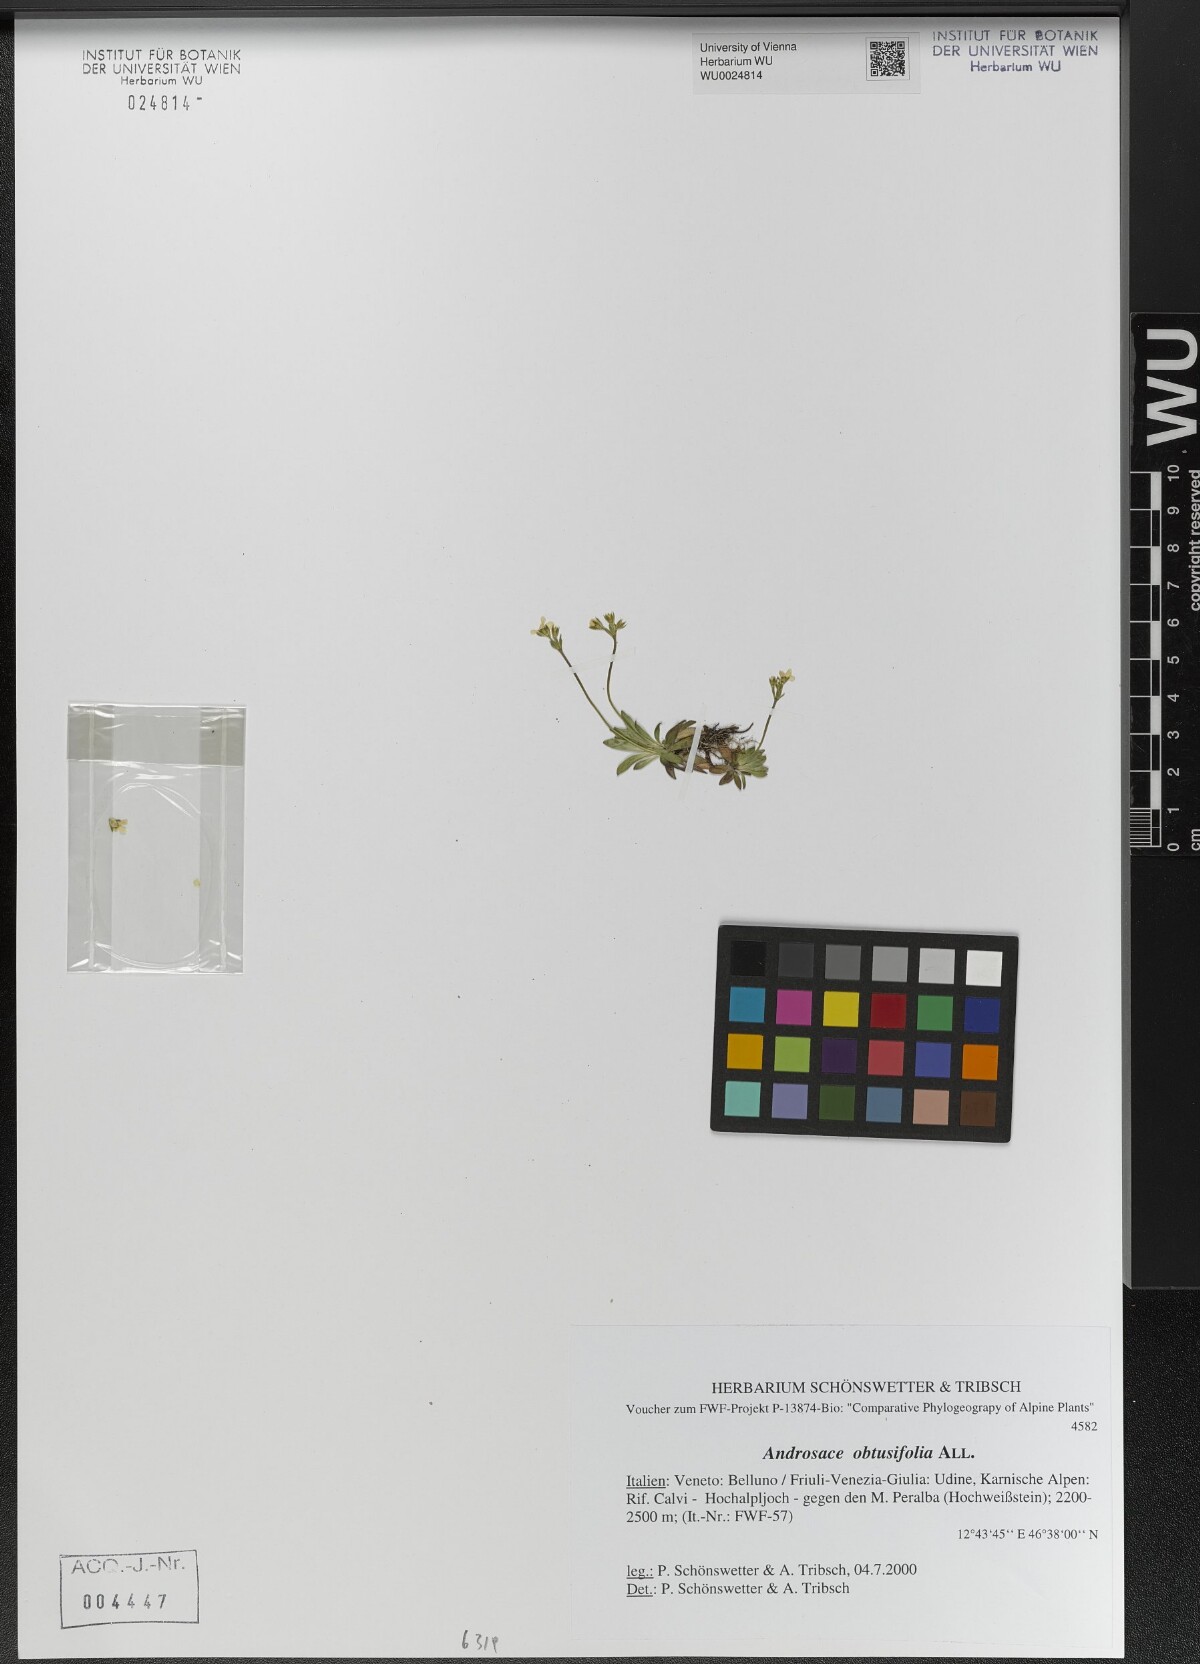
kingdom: Plantae
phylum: Tracheophyta
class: Magnoliopsida
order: Ericales
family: Primulaceae
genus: Androsace
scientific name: Androsace obtusifolia
